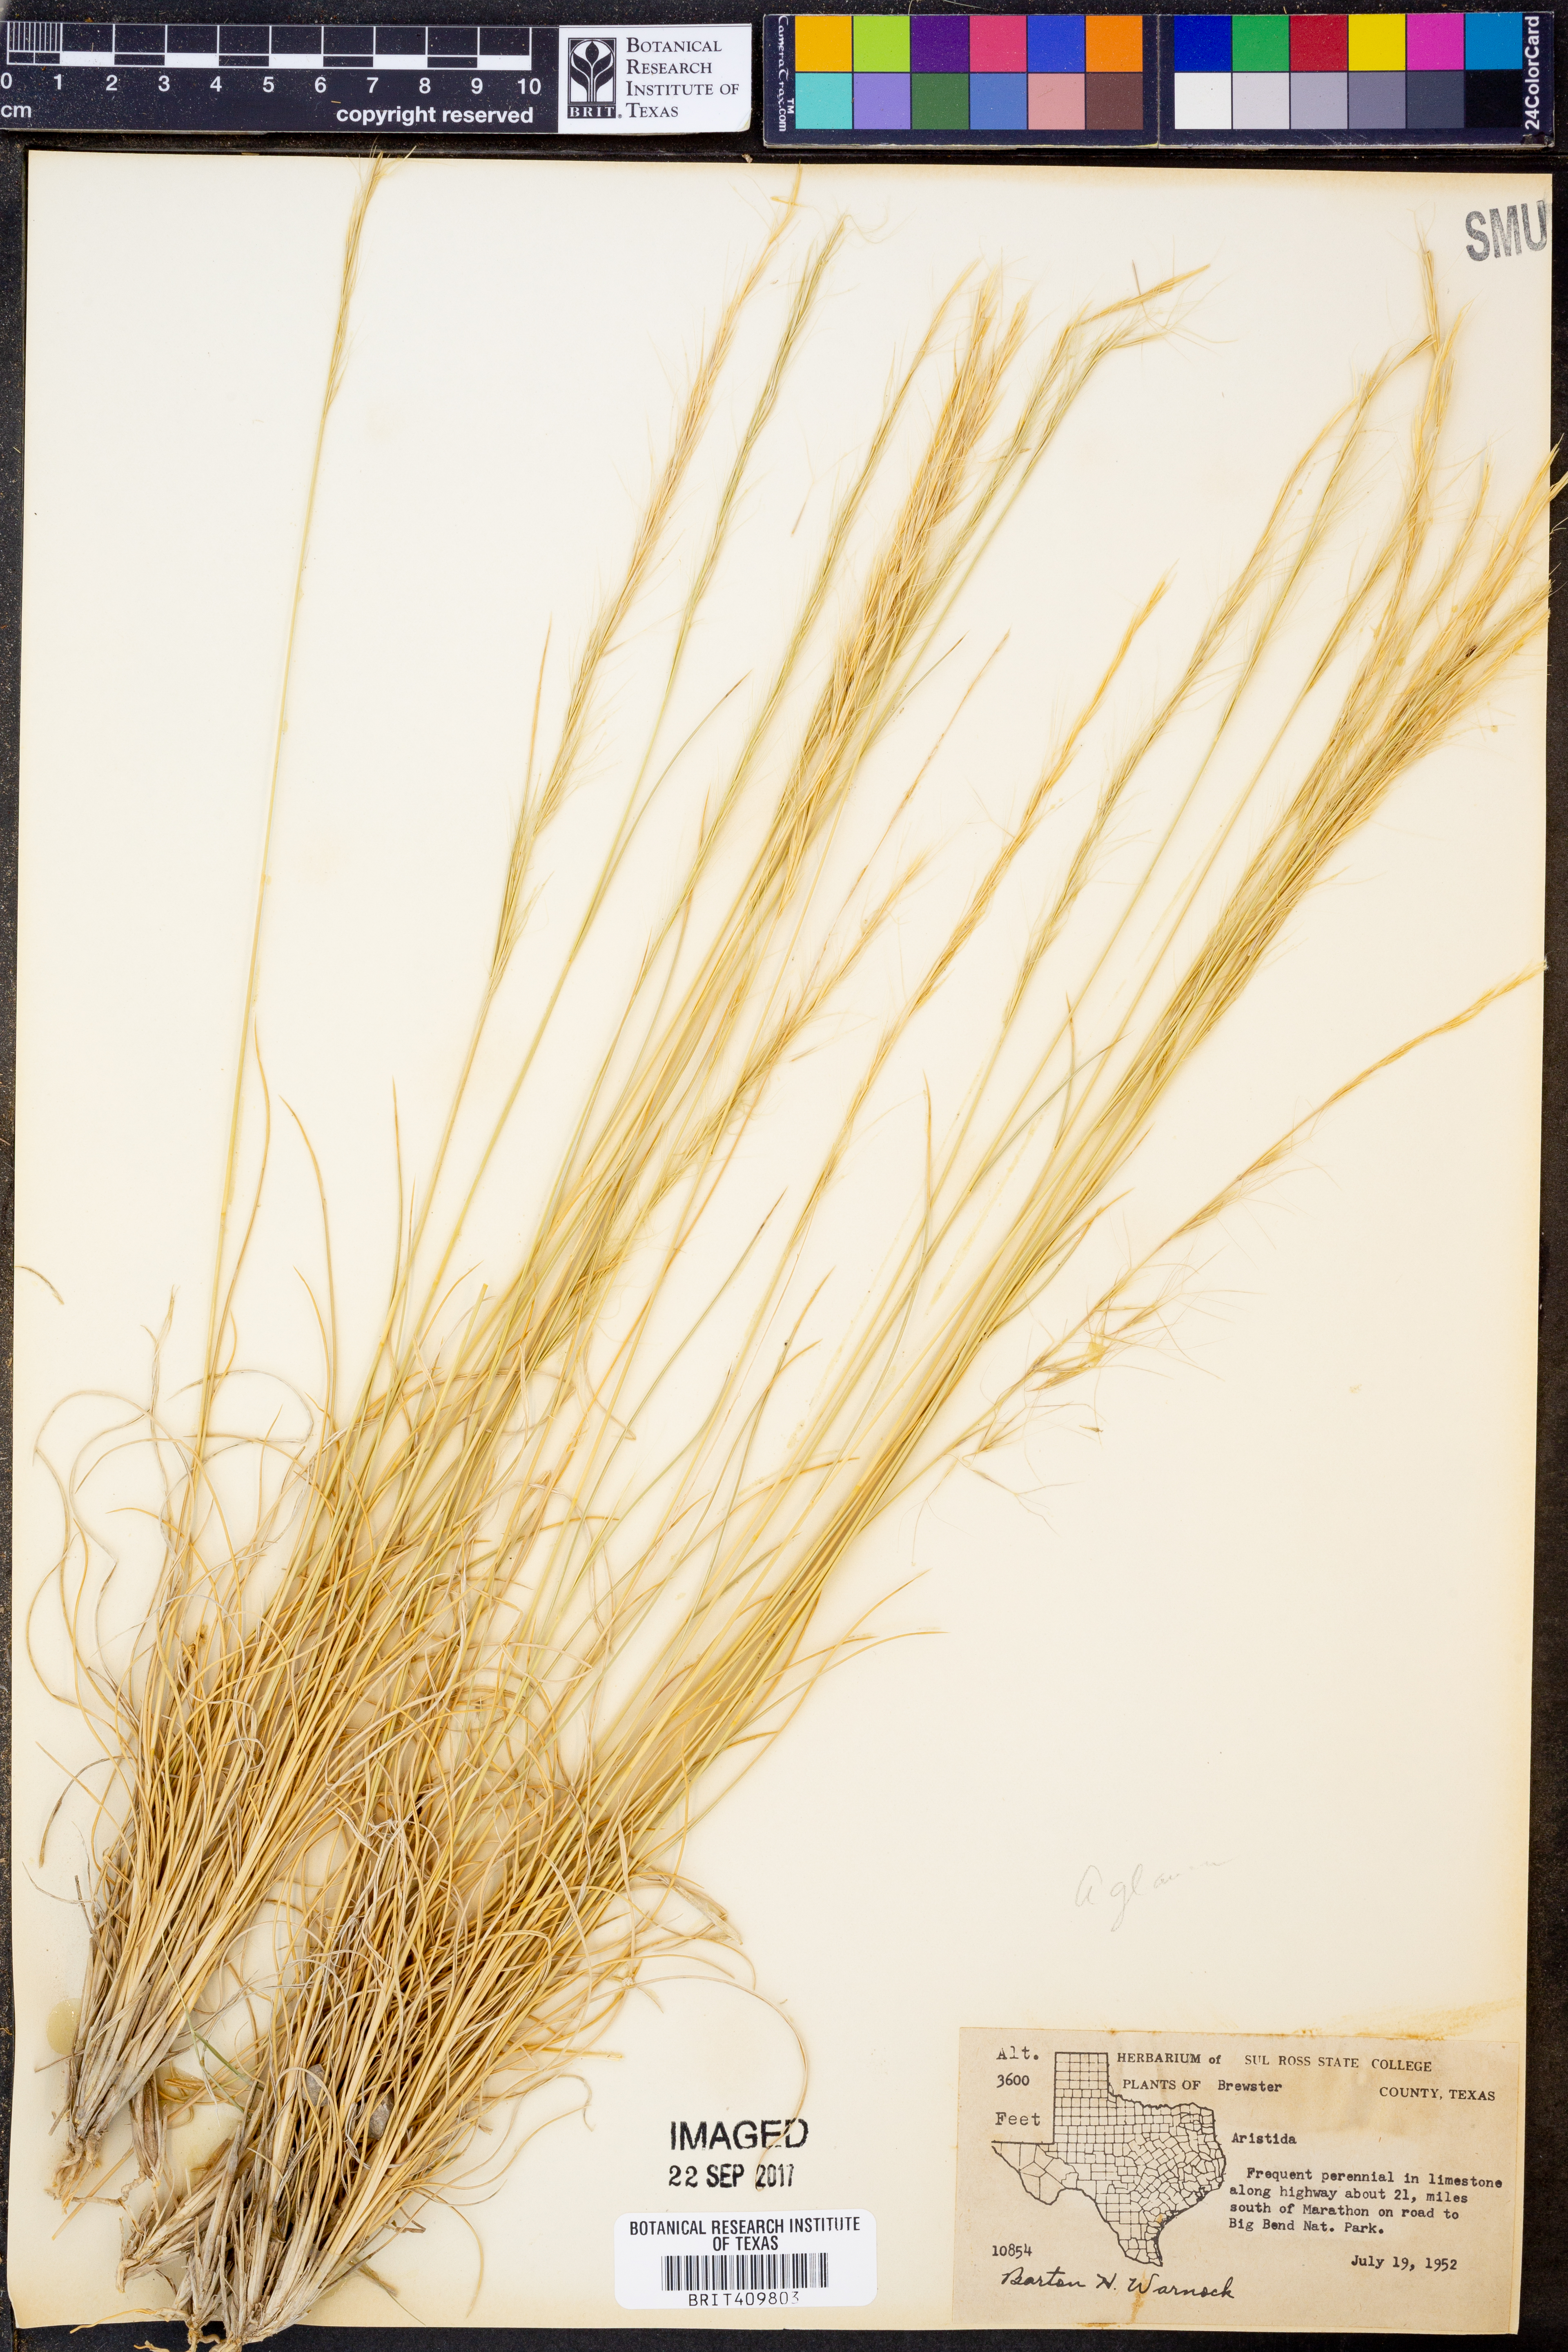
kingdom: Plantae
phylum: Tracheophyta
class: Liliopsida
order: Poales
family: Poaceae
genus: Aristida
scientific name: Aristida
